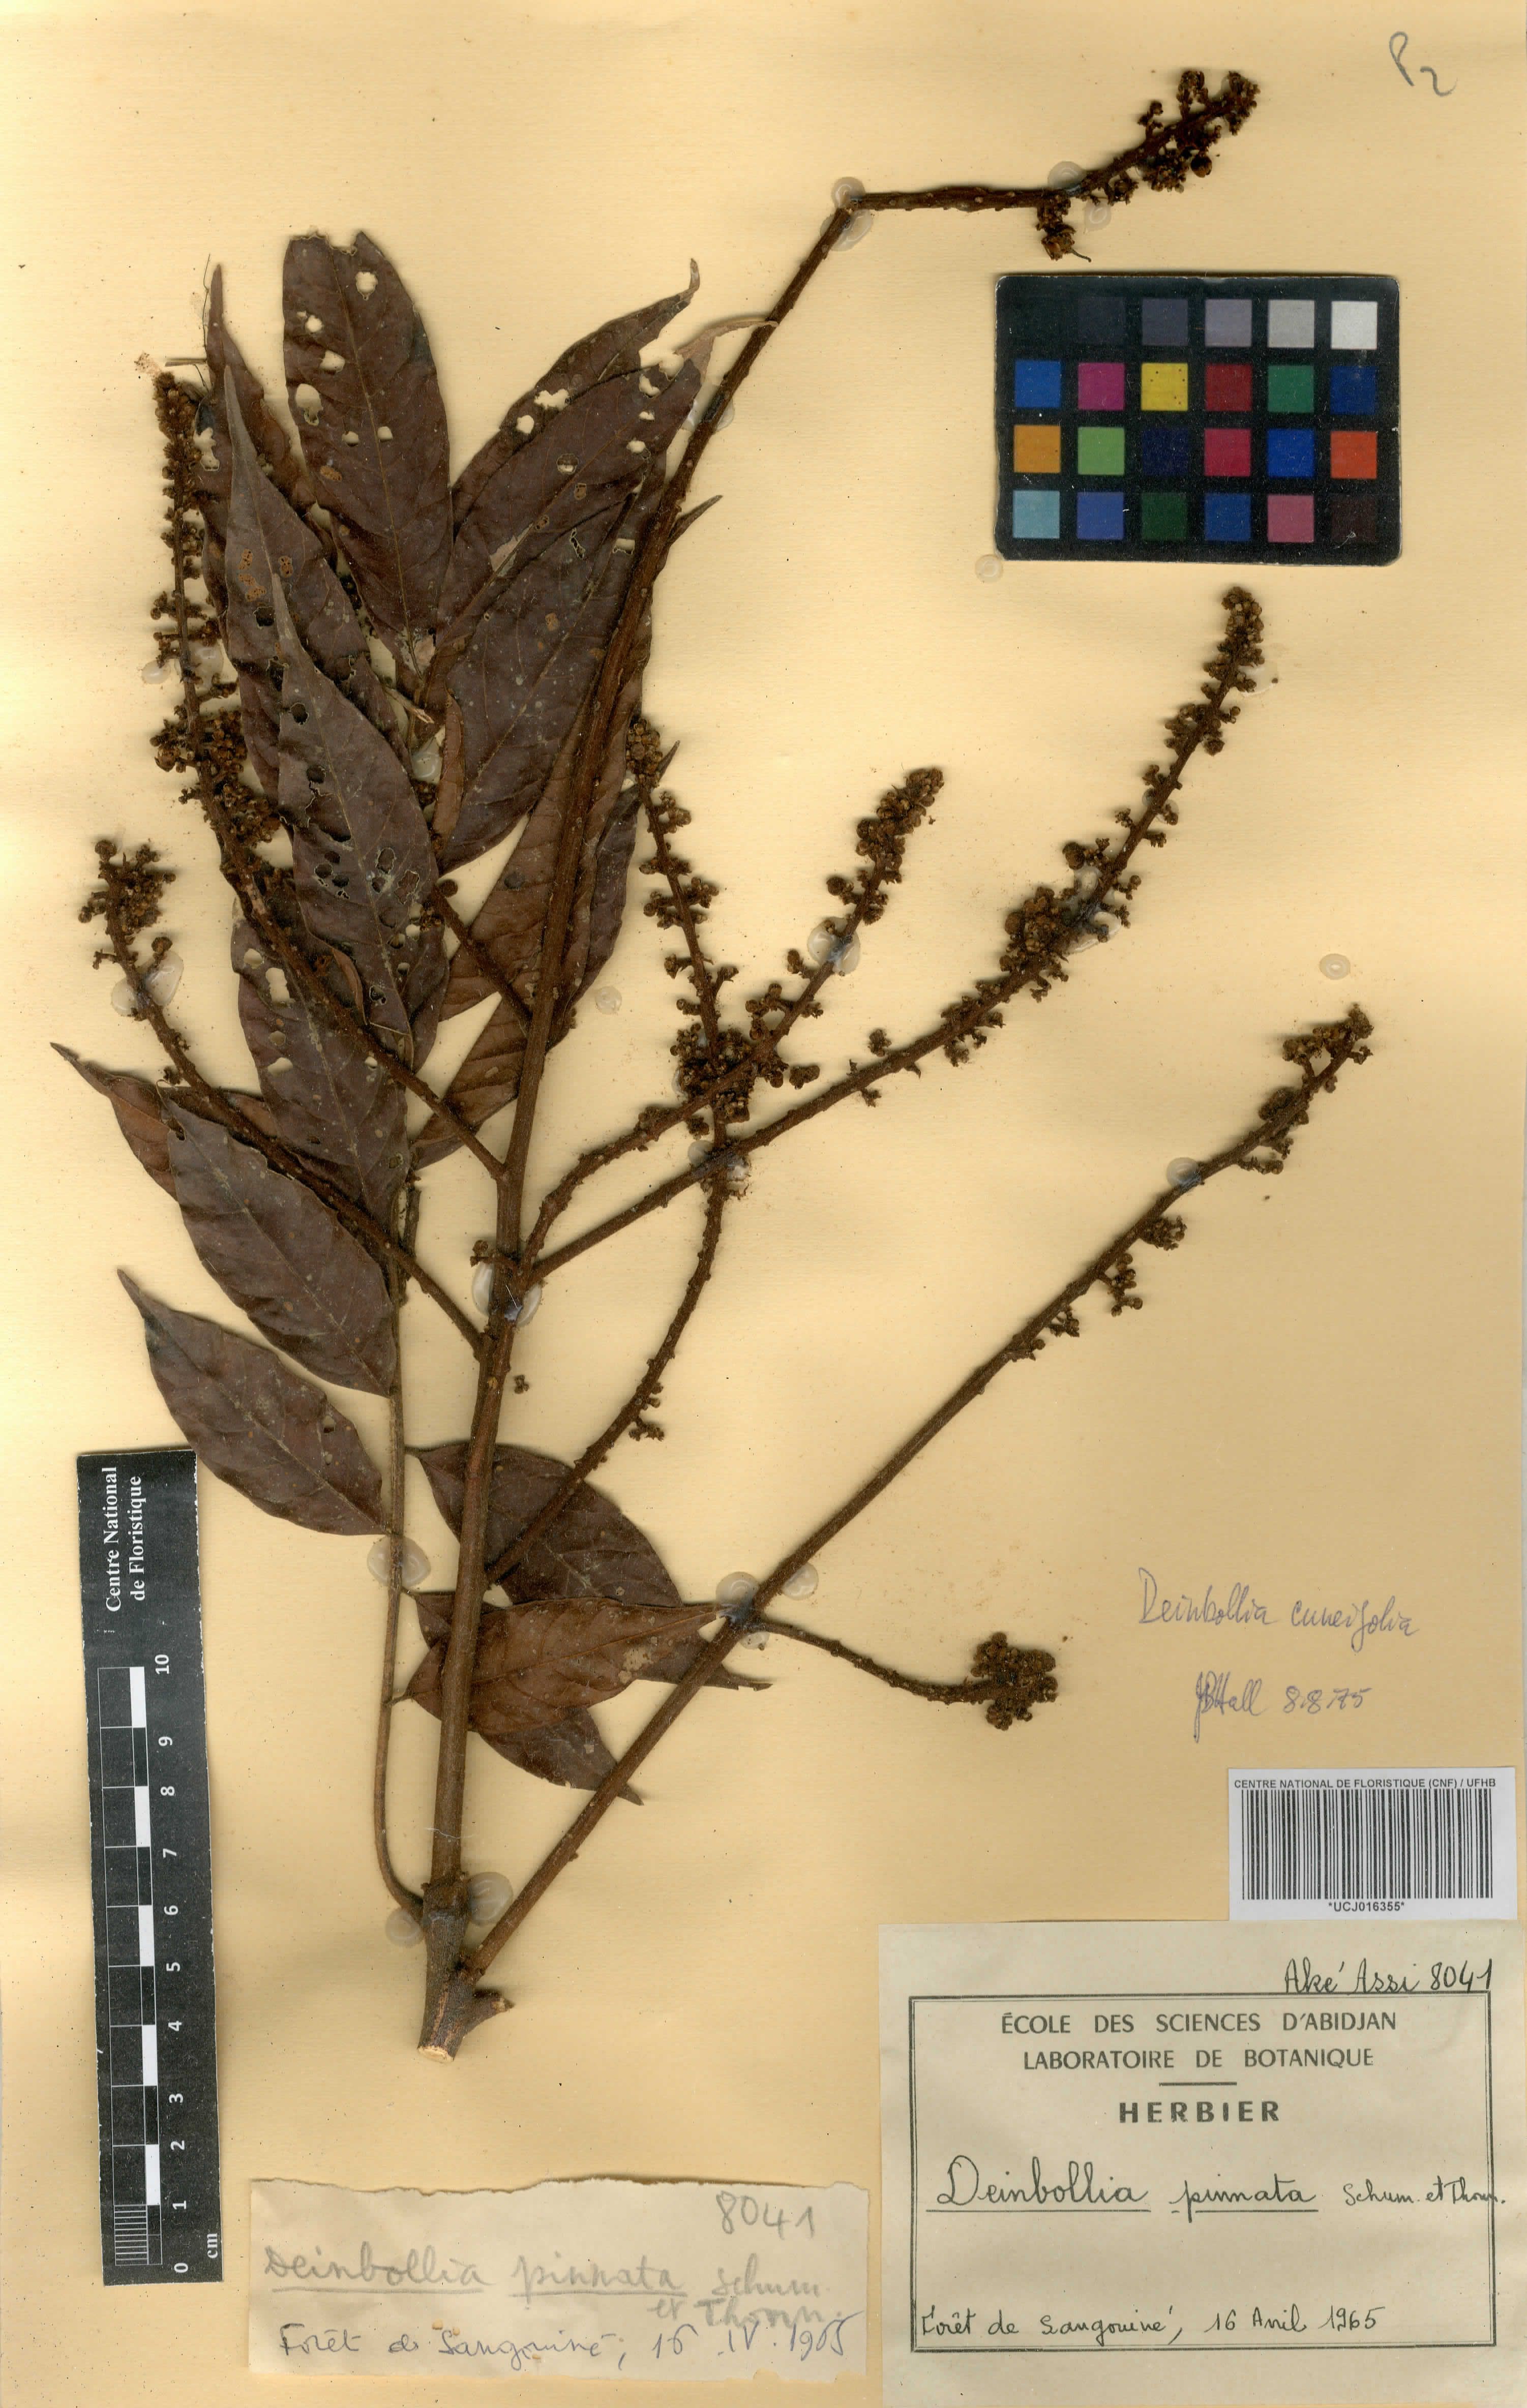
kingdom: Plantae
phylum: Tracheophyta
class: Magnoliopsida
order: Sapindales
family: Sapindaceae
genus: Deinbollia
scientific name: Deinbollia pinnata
